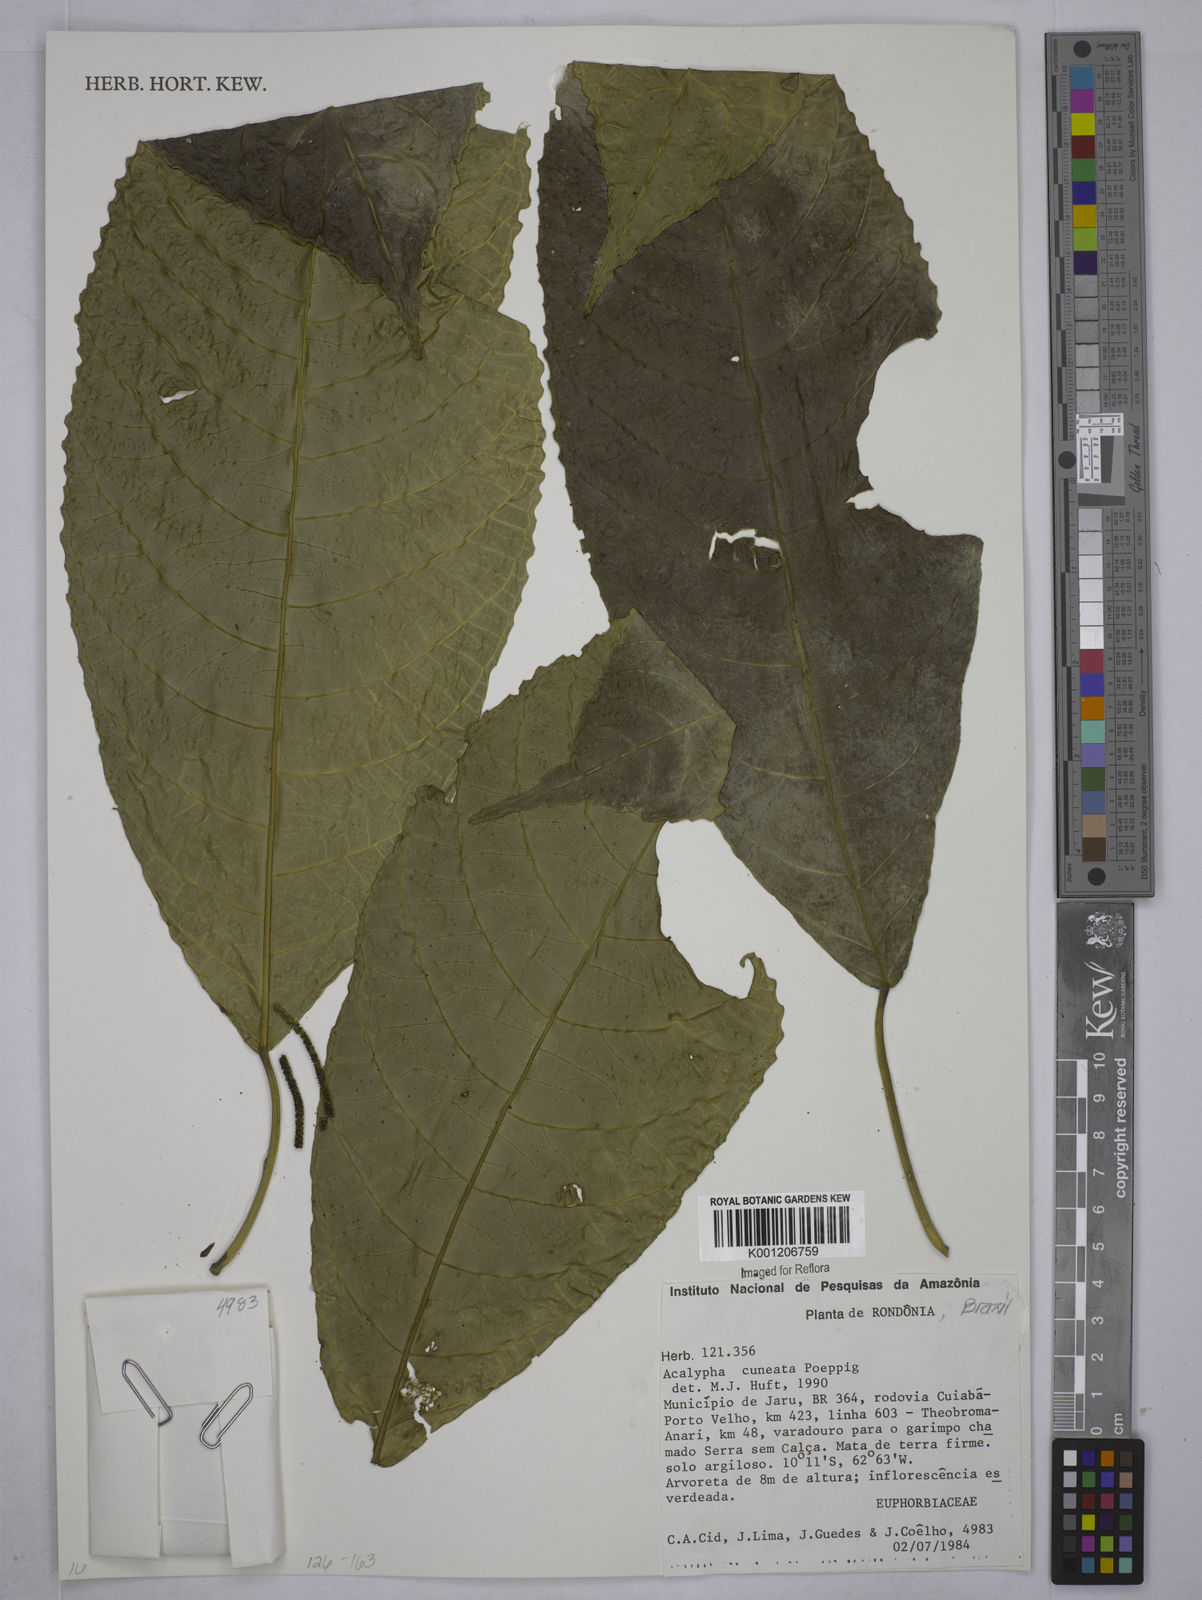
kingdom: Plantae
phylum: Tracheophyta
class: Magnoliopsida
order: Malpighiales
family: Euphorbiaceae
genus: Acalypha
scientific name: Acalypha acuminata
